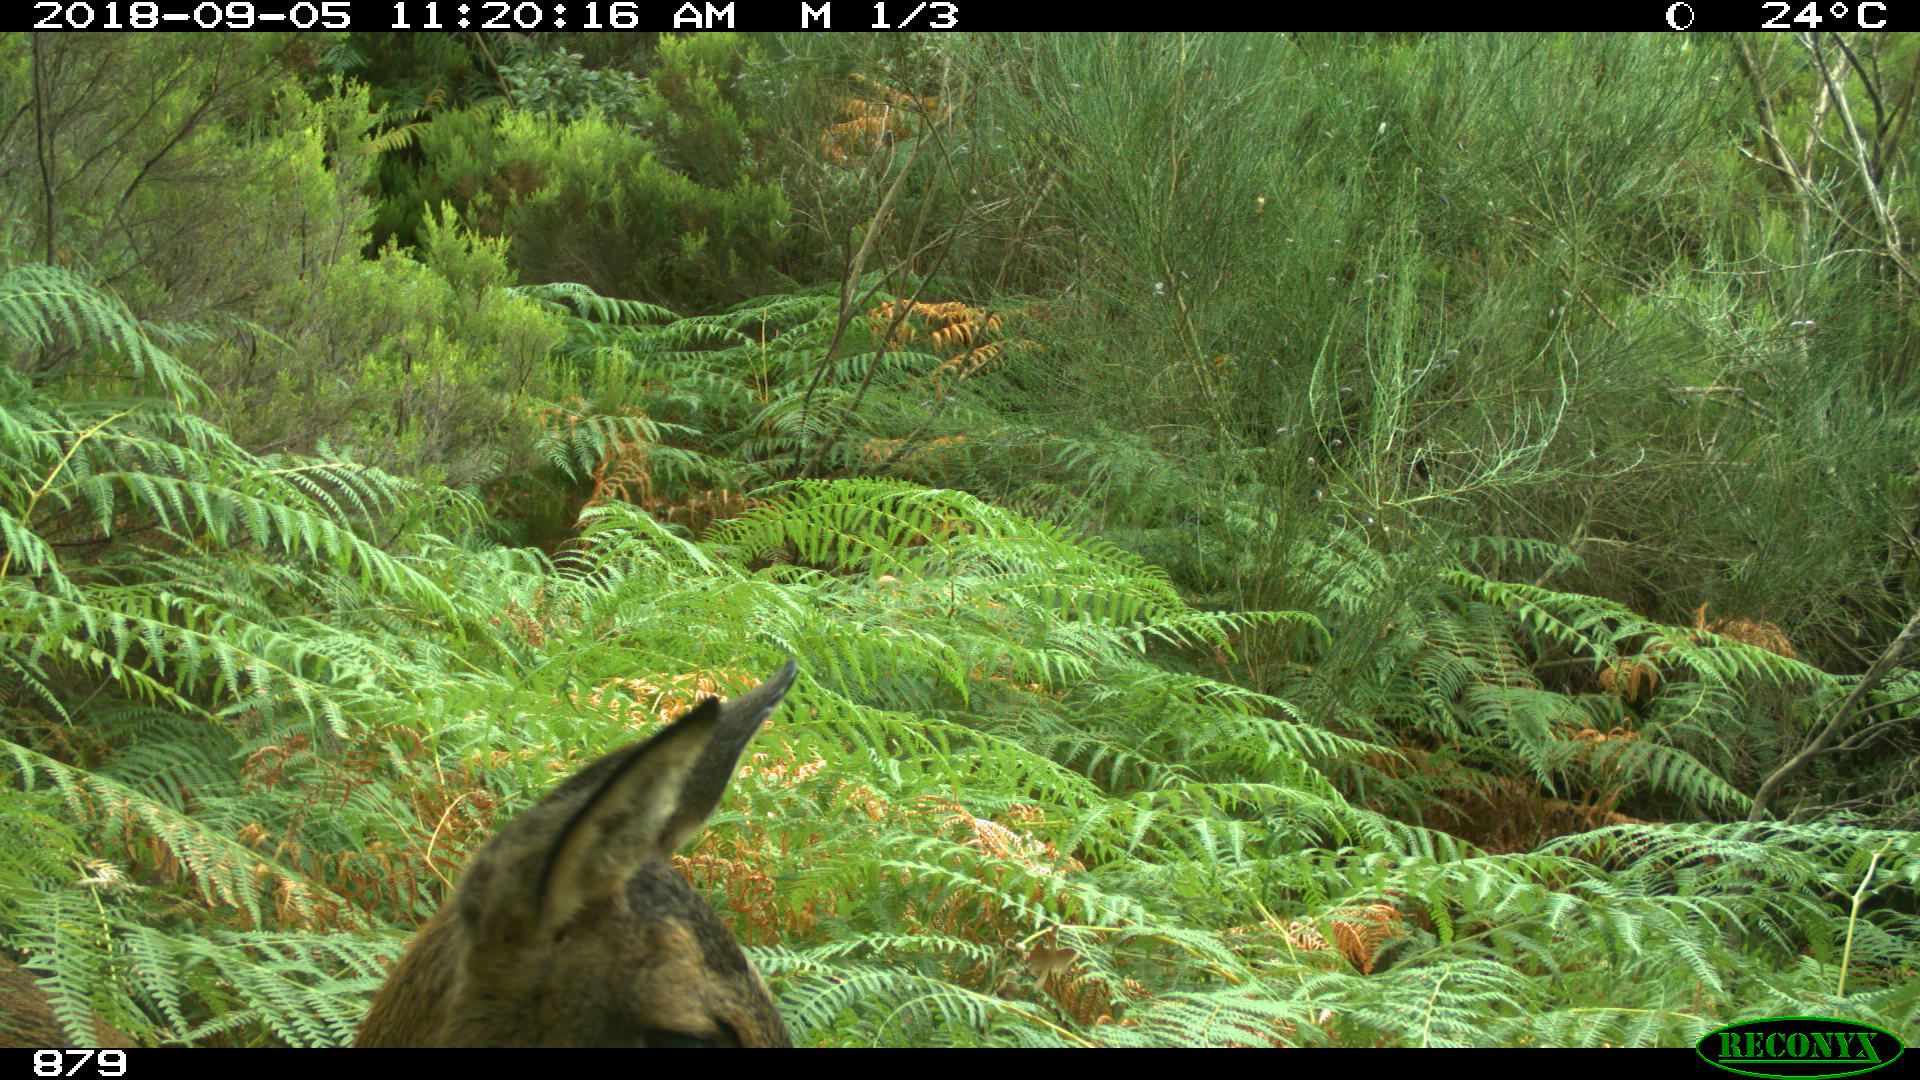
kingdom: Animalia
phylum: Chordata
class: Mammalia
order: Artiodactyla
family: Cervidae
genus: Capreolus
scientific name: Capreolus capreolus
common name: Western roe deer
